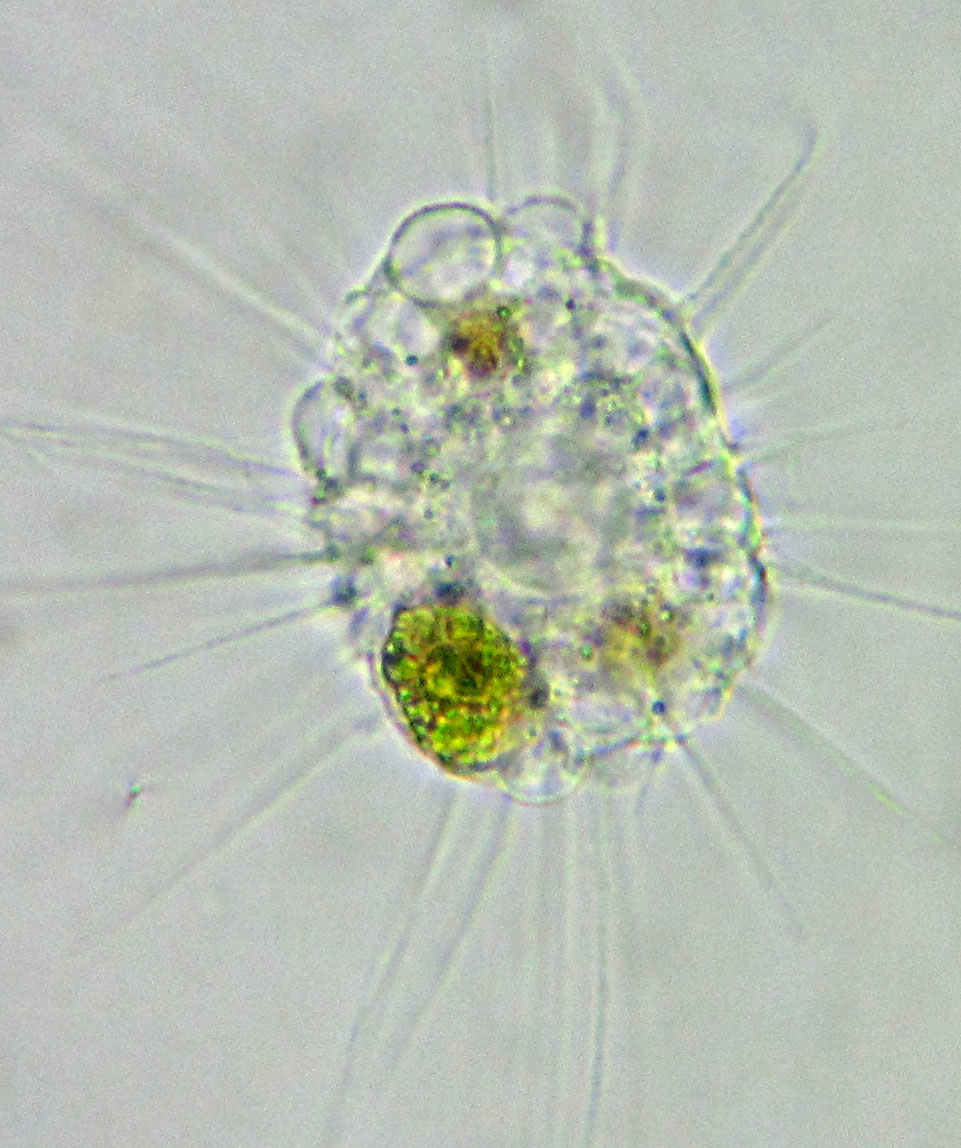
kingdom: Chromista
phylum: Ochrophyta
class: Raphidophyceae
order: Actinophryida
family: Actinophryidae
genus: Actinophrys
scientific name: Actinophrys sol
